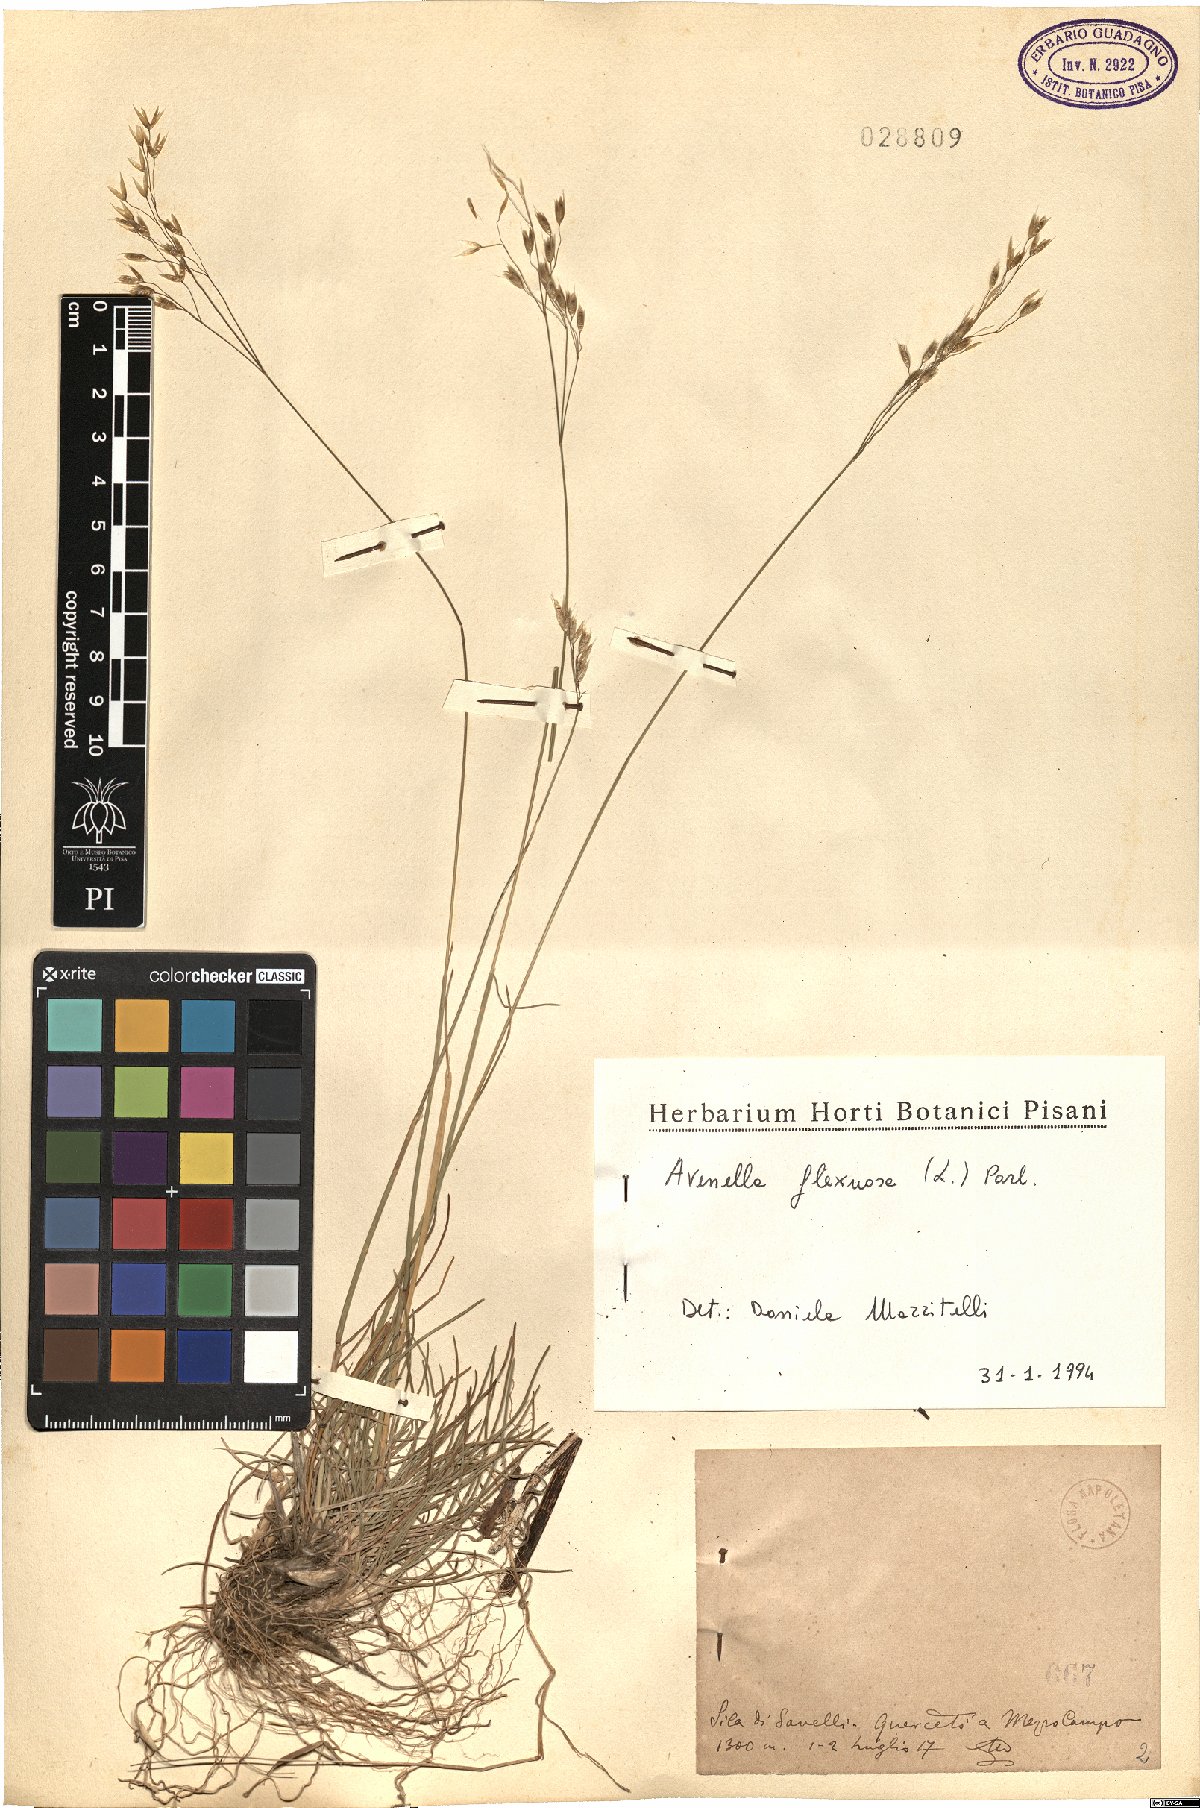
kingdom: Plantae
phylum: Tracheophyta
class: Liliopsida
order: Poales
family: Poaceae
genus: Avenella
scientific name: Avenella flexuosa
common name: Wavy hairgrass
